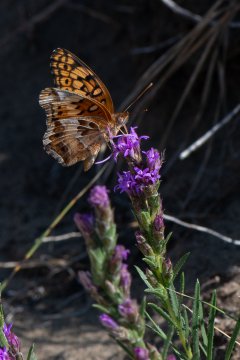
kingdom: Animalia
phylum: Arthropoda
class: Insecta
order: Lepidoptera
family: Nymphalidae
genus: Euptoieta
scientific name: Euptoieta claudia
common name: Variegated Fritillary
